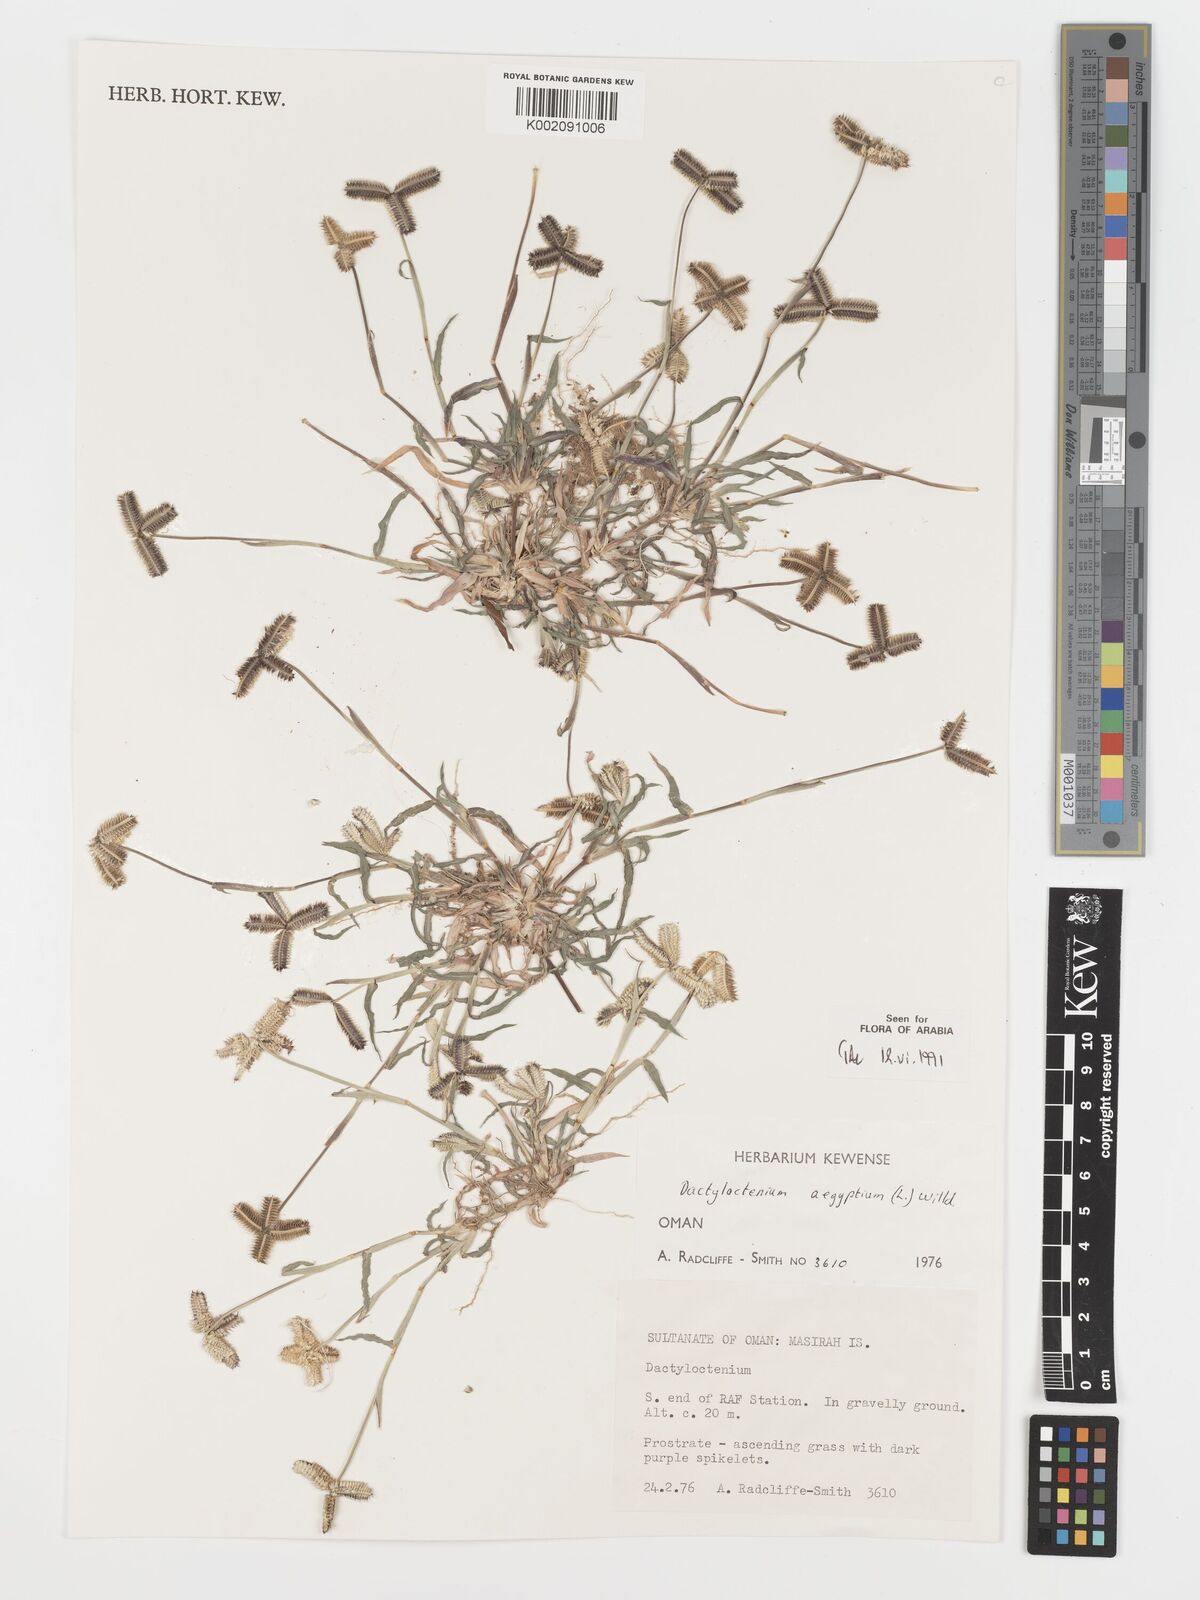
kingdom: Plantae
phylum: Tracheophyta
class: Liliopsida
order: Poales
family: Poaceae
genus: Dactyloctenium
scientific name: Dactyloctenium aegyptium
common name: Egyptian grass
